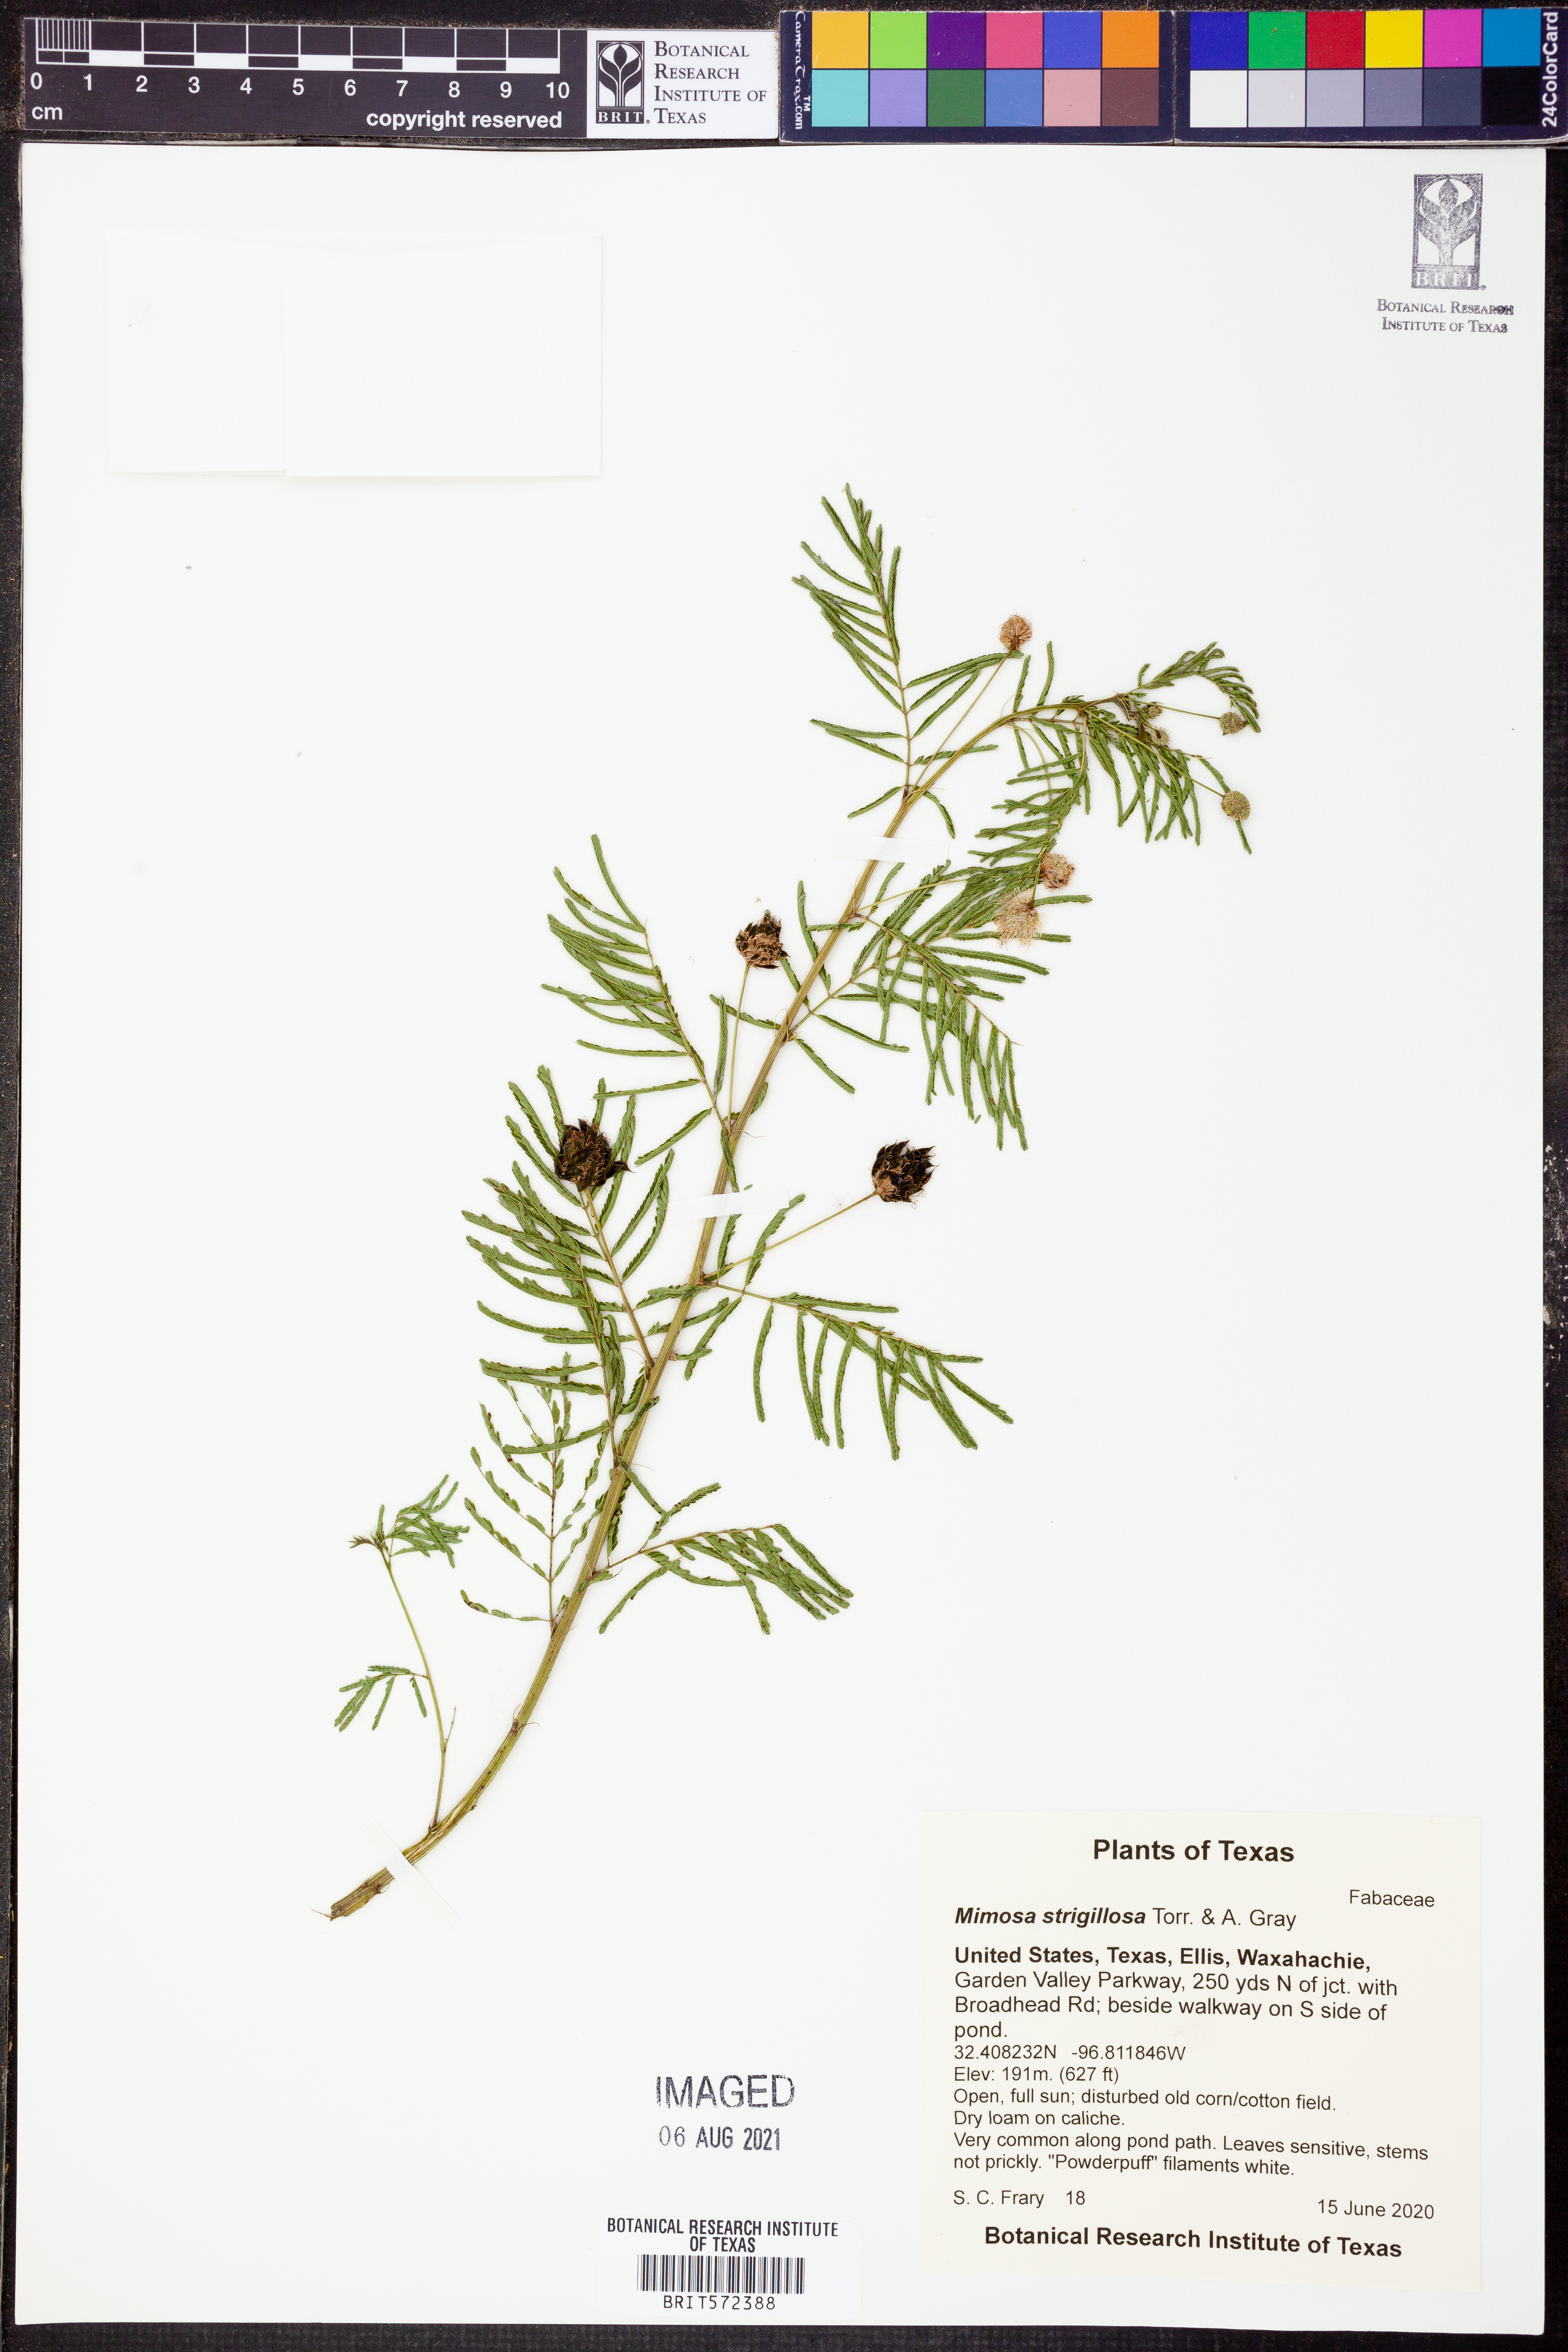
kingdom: Plantae
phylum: Tracheophyta
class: Magnoliopsida
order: Fabales
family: Fabaceae
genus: Mimosa
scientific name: Mimosa strigillosa
